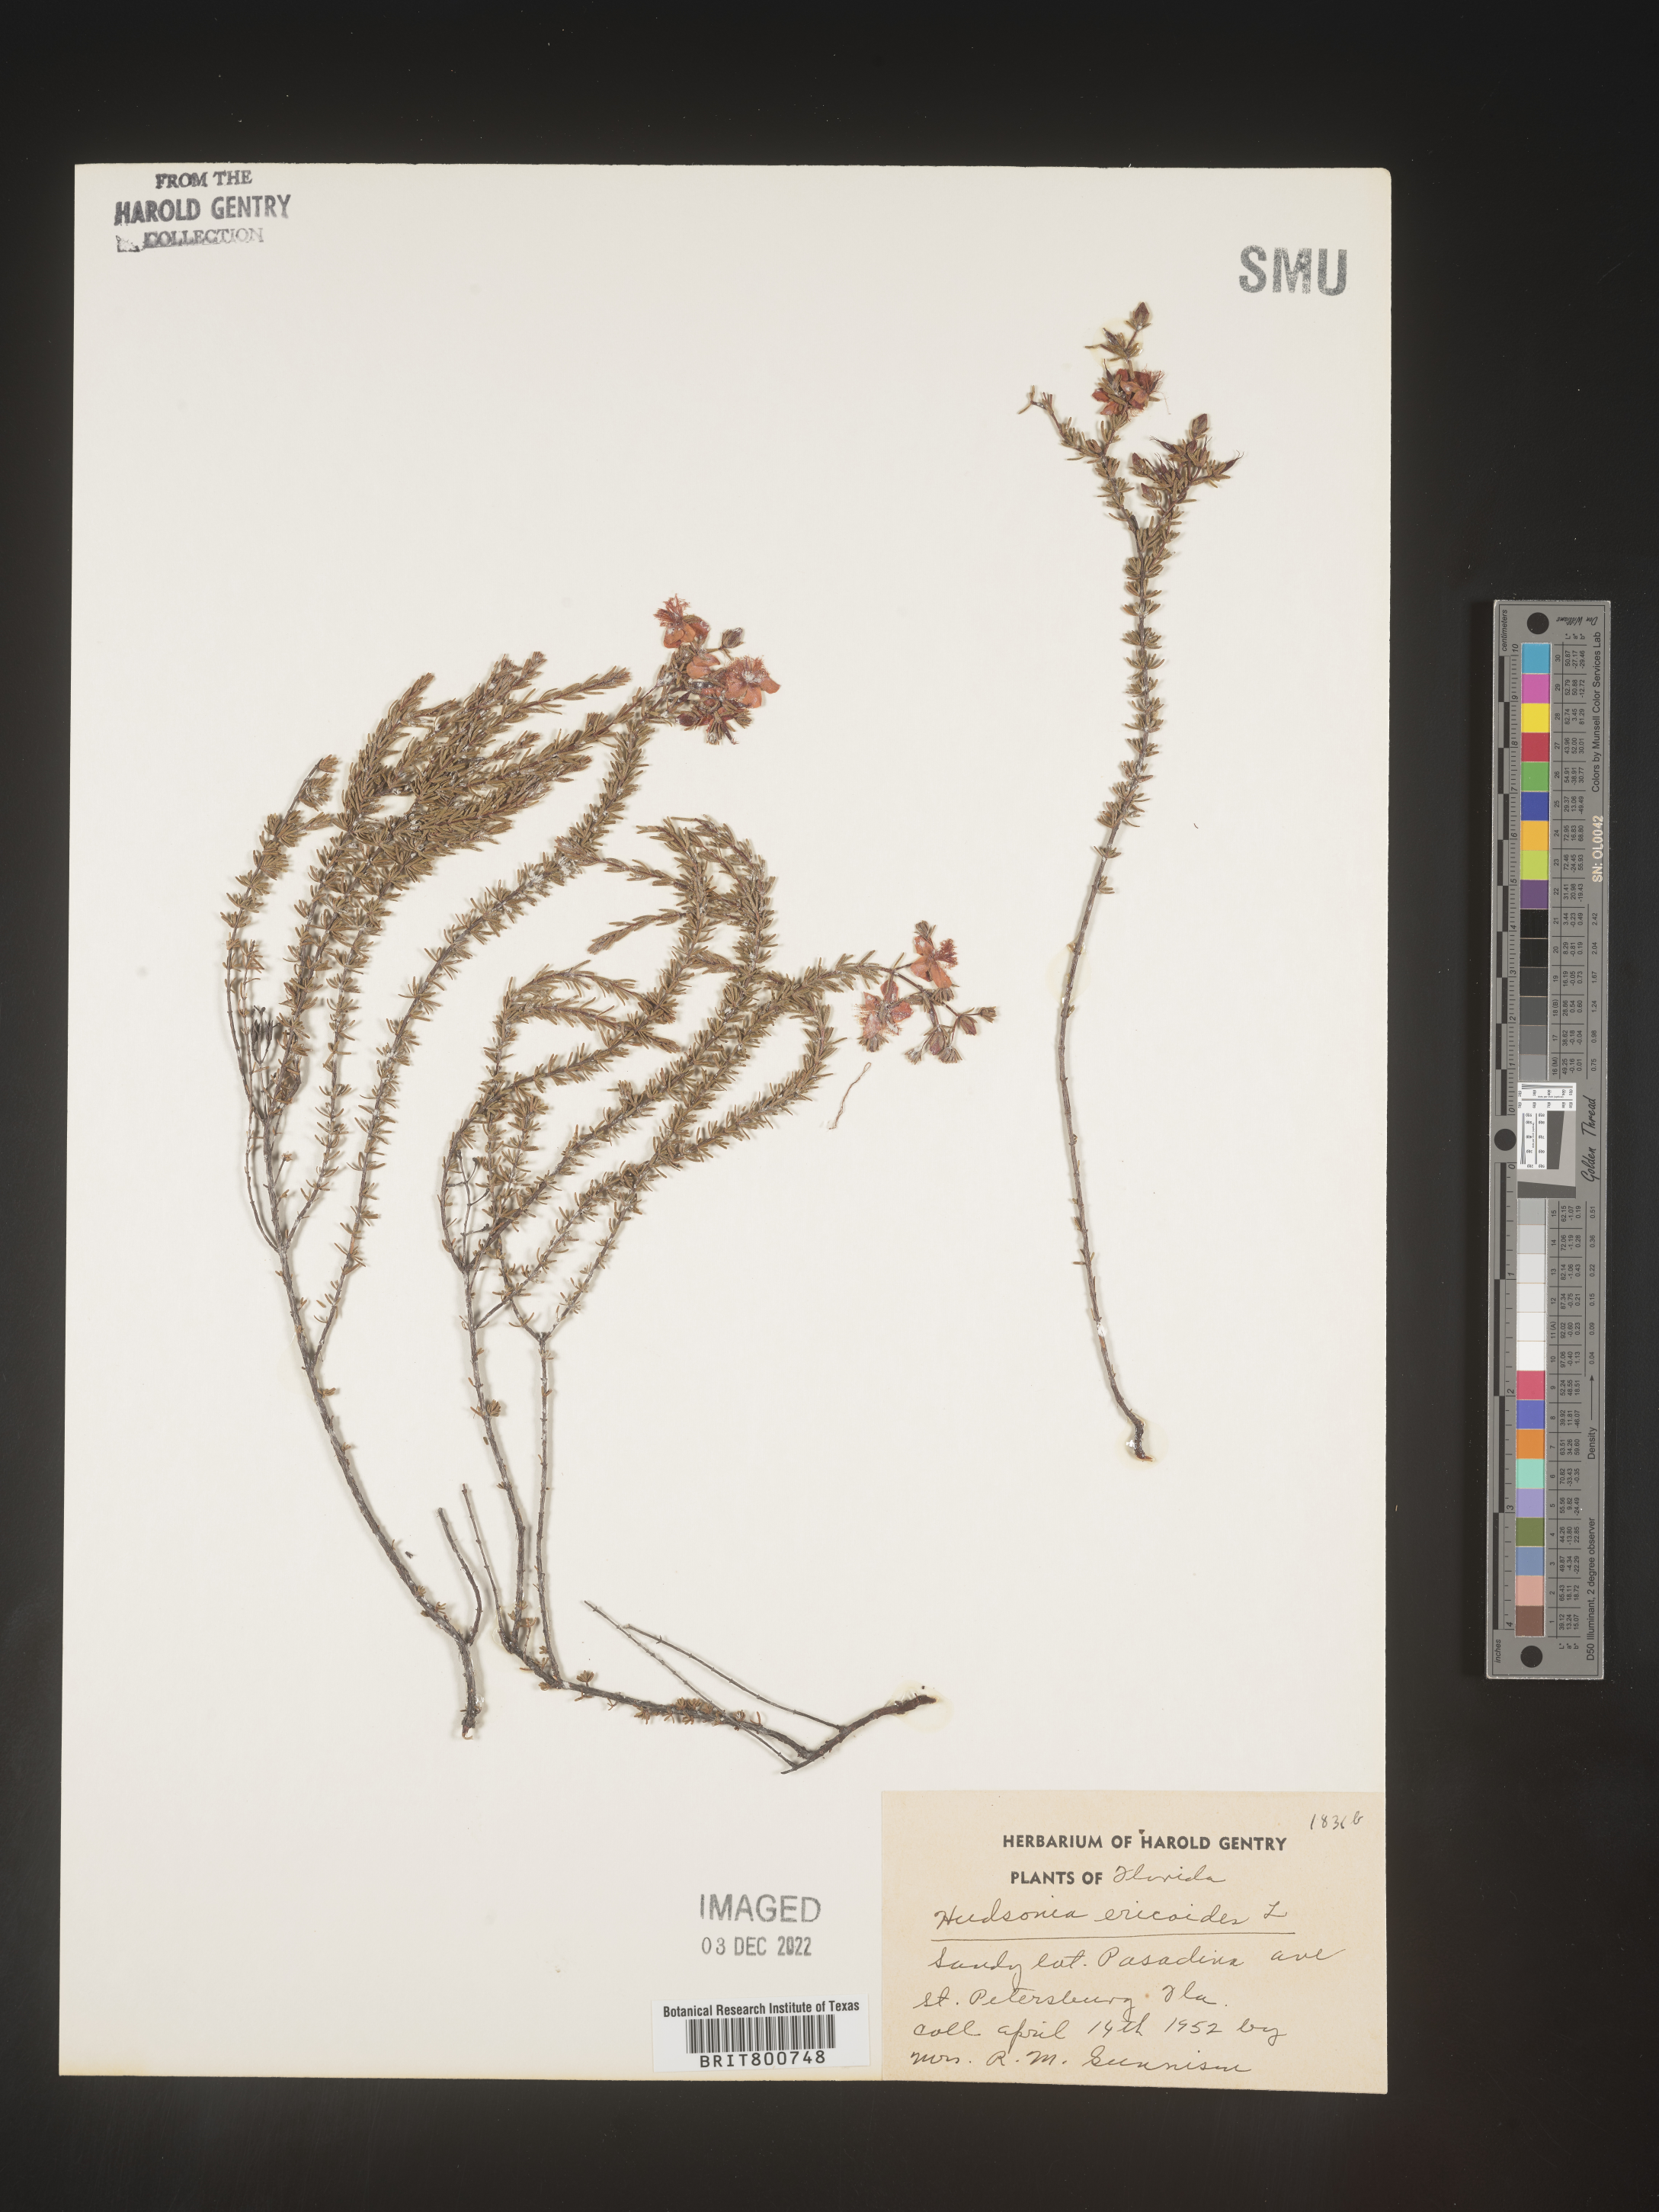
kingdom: Plantae
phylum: Tracheophyta
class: Magnoliopsida
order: Malvales
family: Cistaceae
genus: Hudsonia
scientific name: Hudsonia ericoides
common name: Golden-heather
